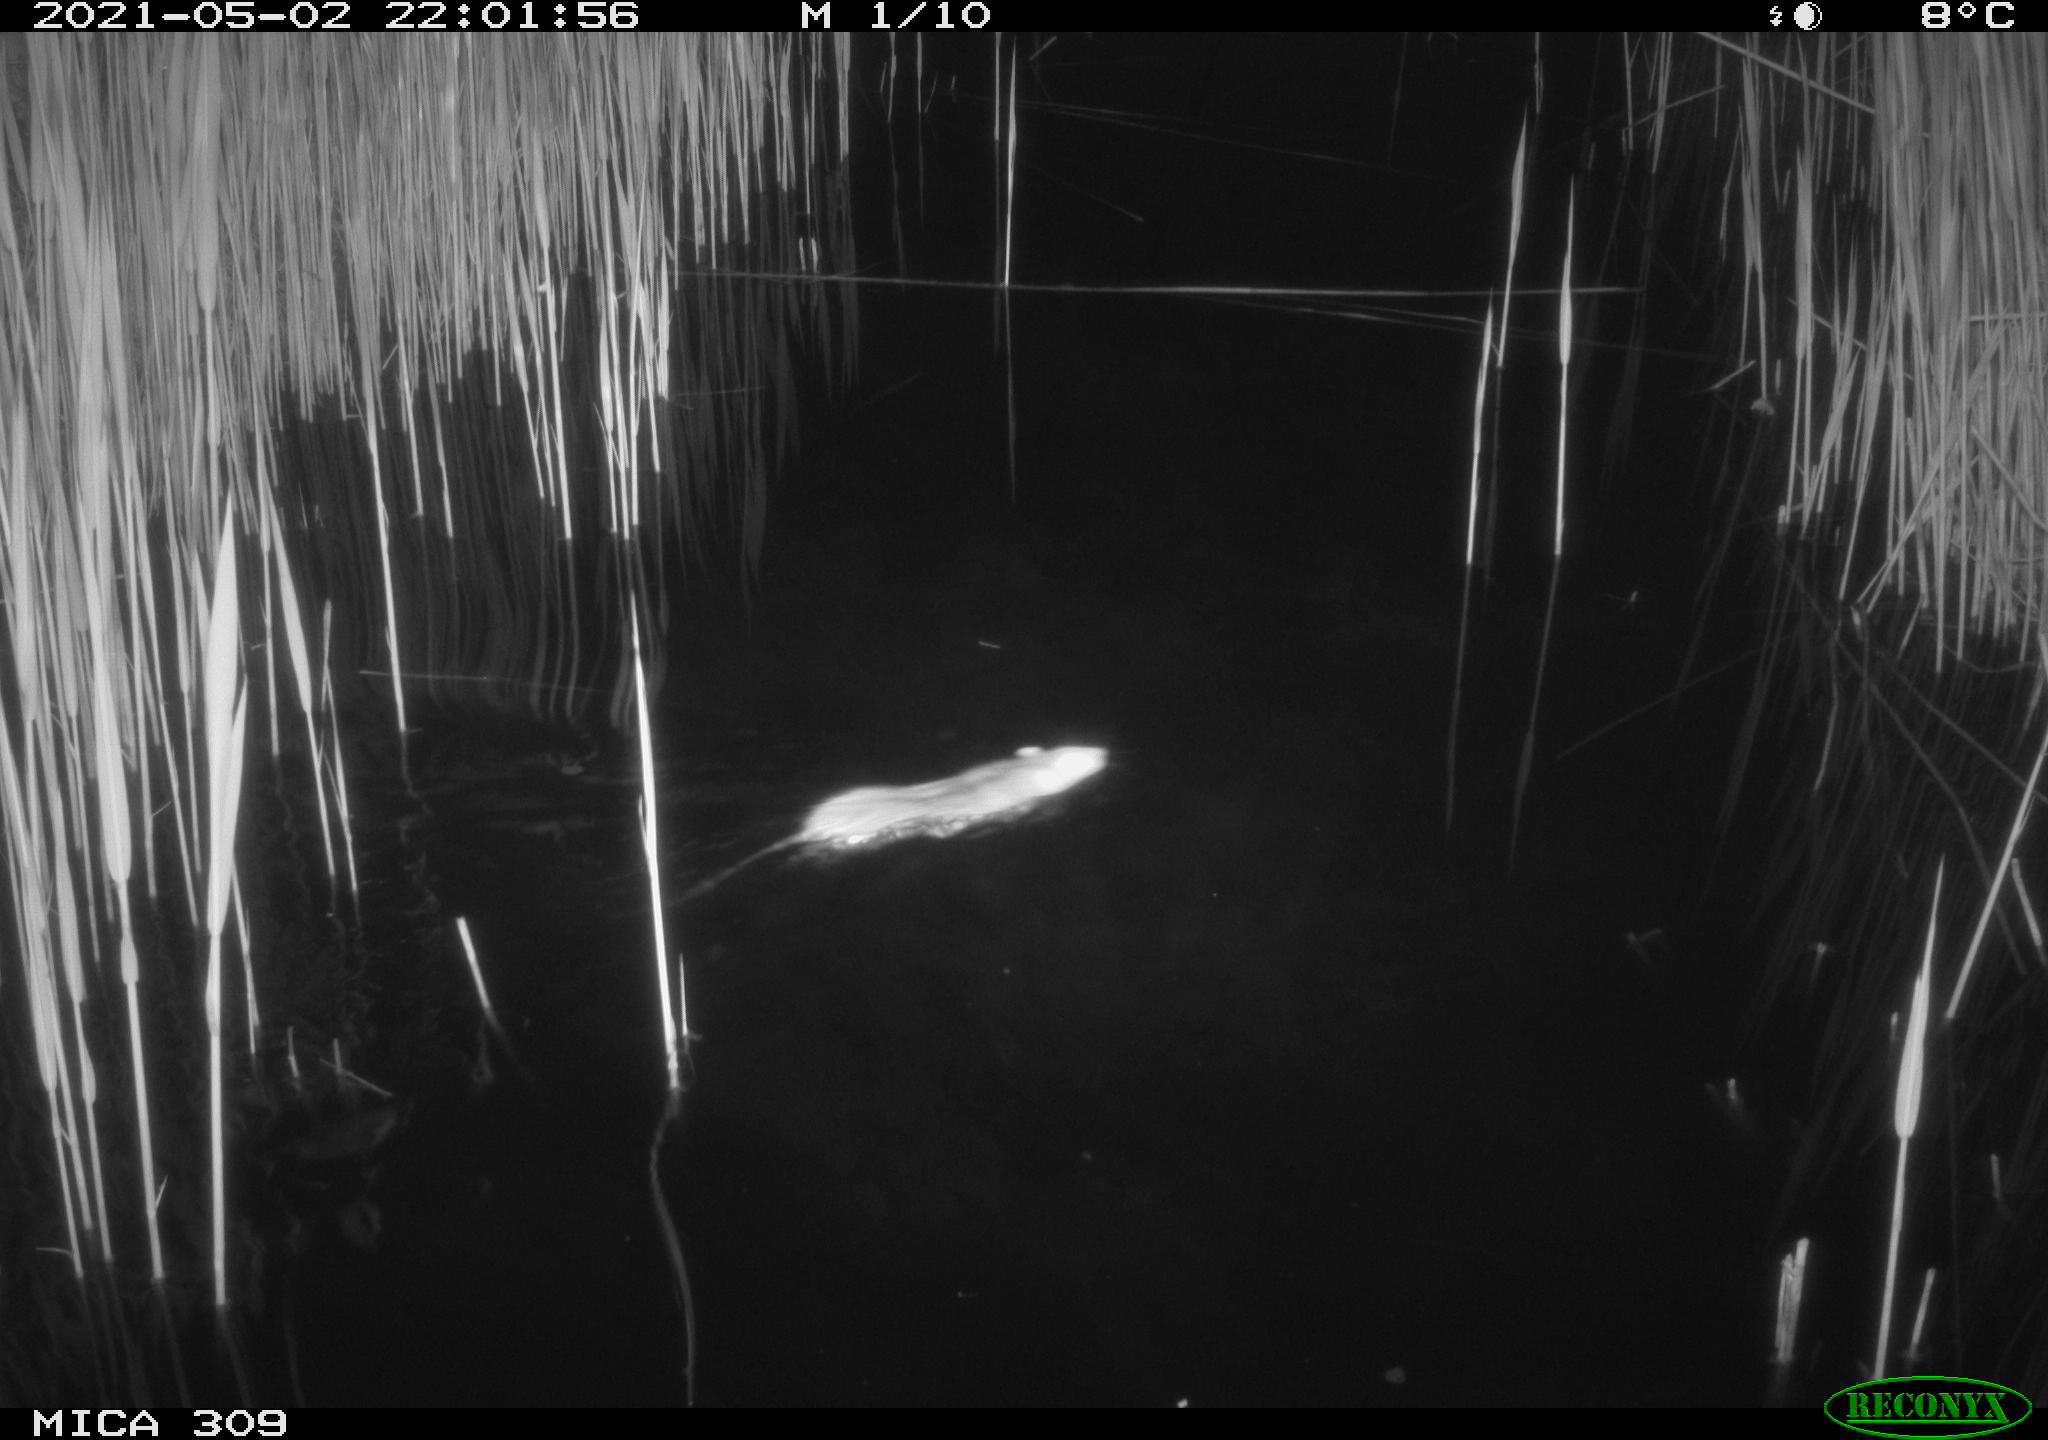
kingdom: Animalia
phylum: Chordata
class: Mammalia
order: Rodentia
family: Muridae
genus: Rattus
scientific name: Rattus norvegicus
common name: Brown rat
